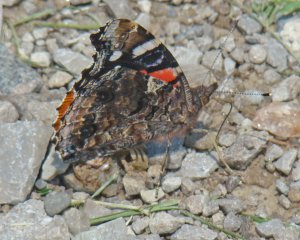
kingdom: Animalia
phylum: Arthropoda
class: Insecta
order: Lepidoptera
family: Nymphalidae
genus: Vanessa
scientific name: Vanessa atalanta
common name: Red Admiral
